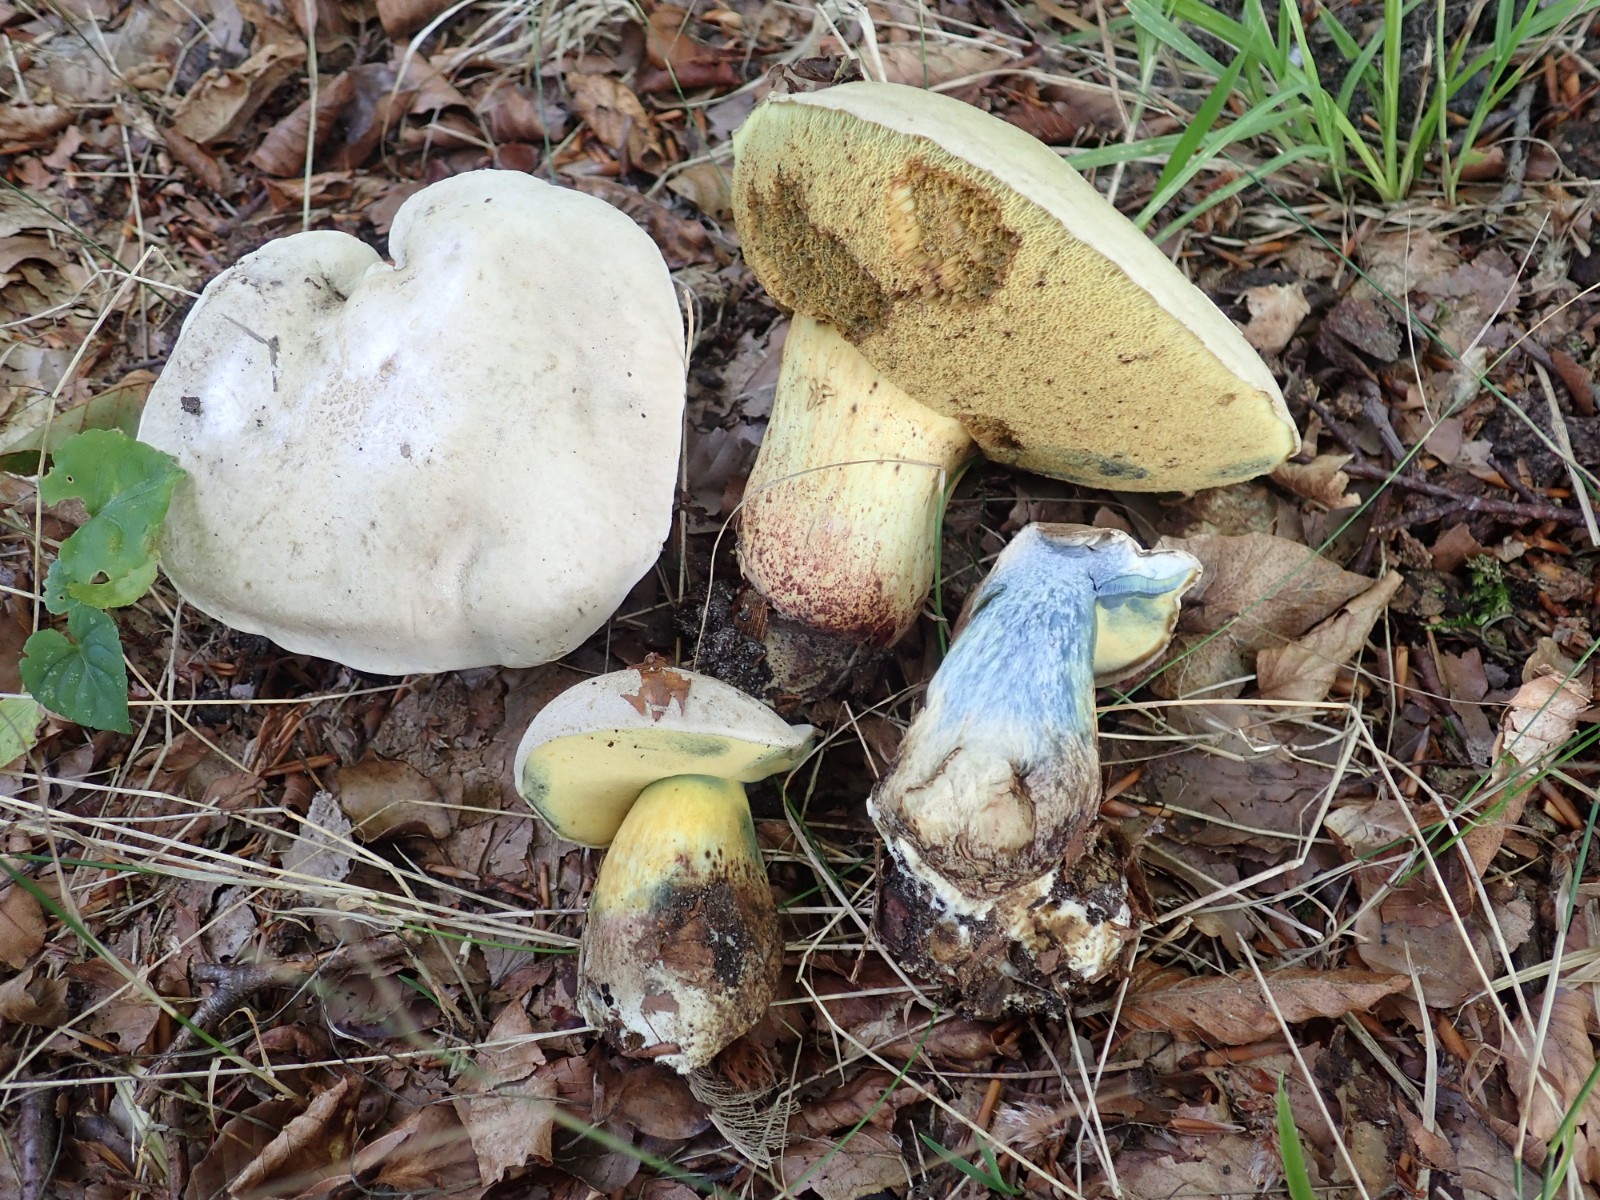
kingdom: Fungi
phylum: Basidiomycota
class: Agaricomycetes
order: Boletales
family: Boletaceae
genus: Caloboletus
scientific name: Caloboletus radicans
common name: rod-rørhat
